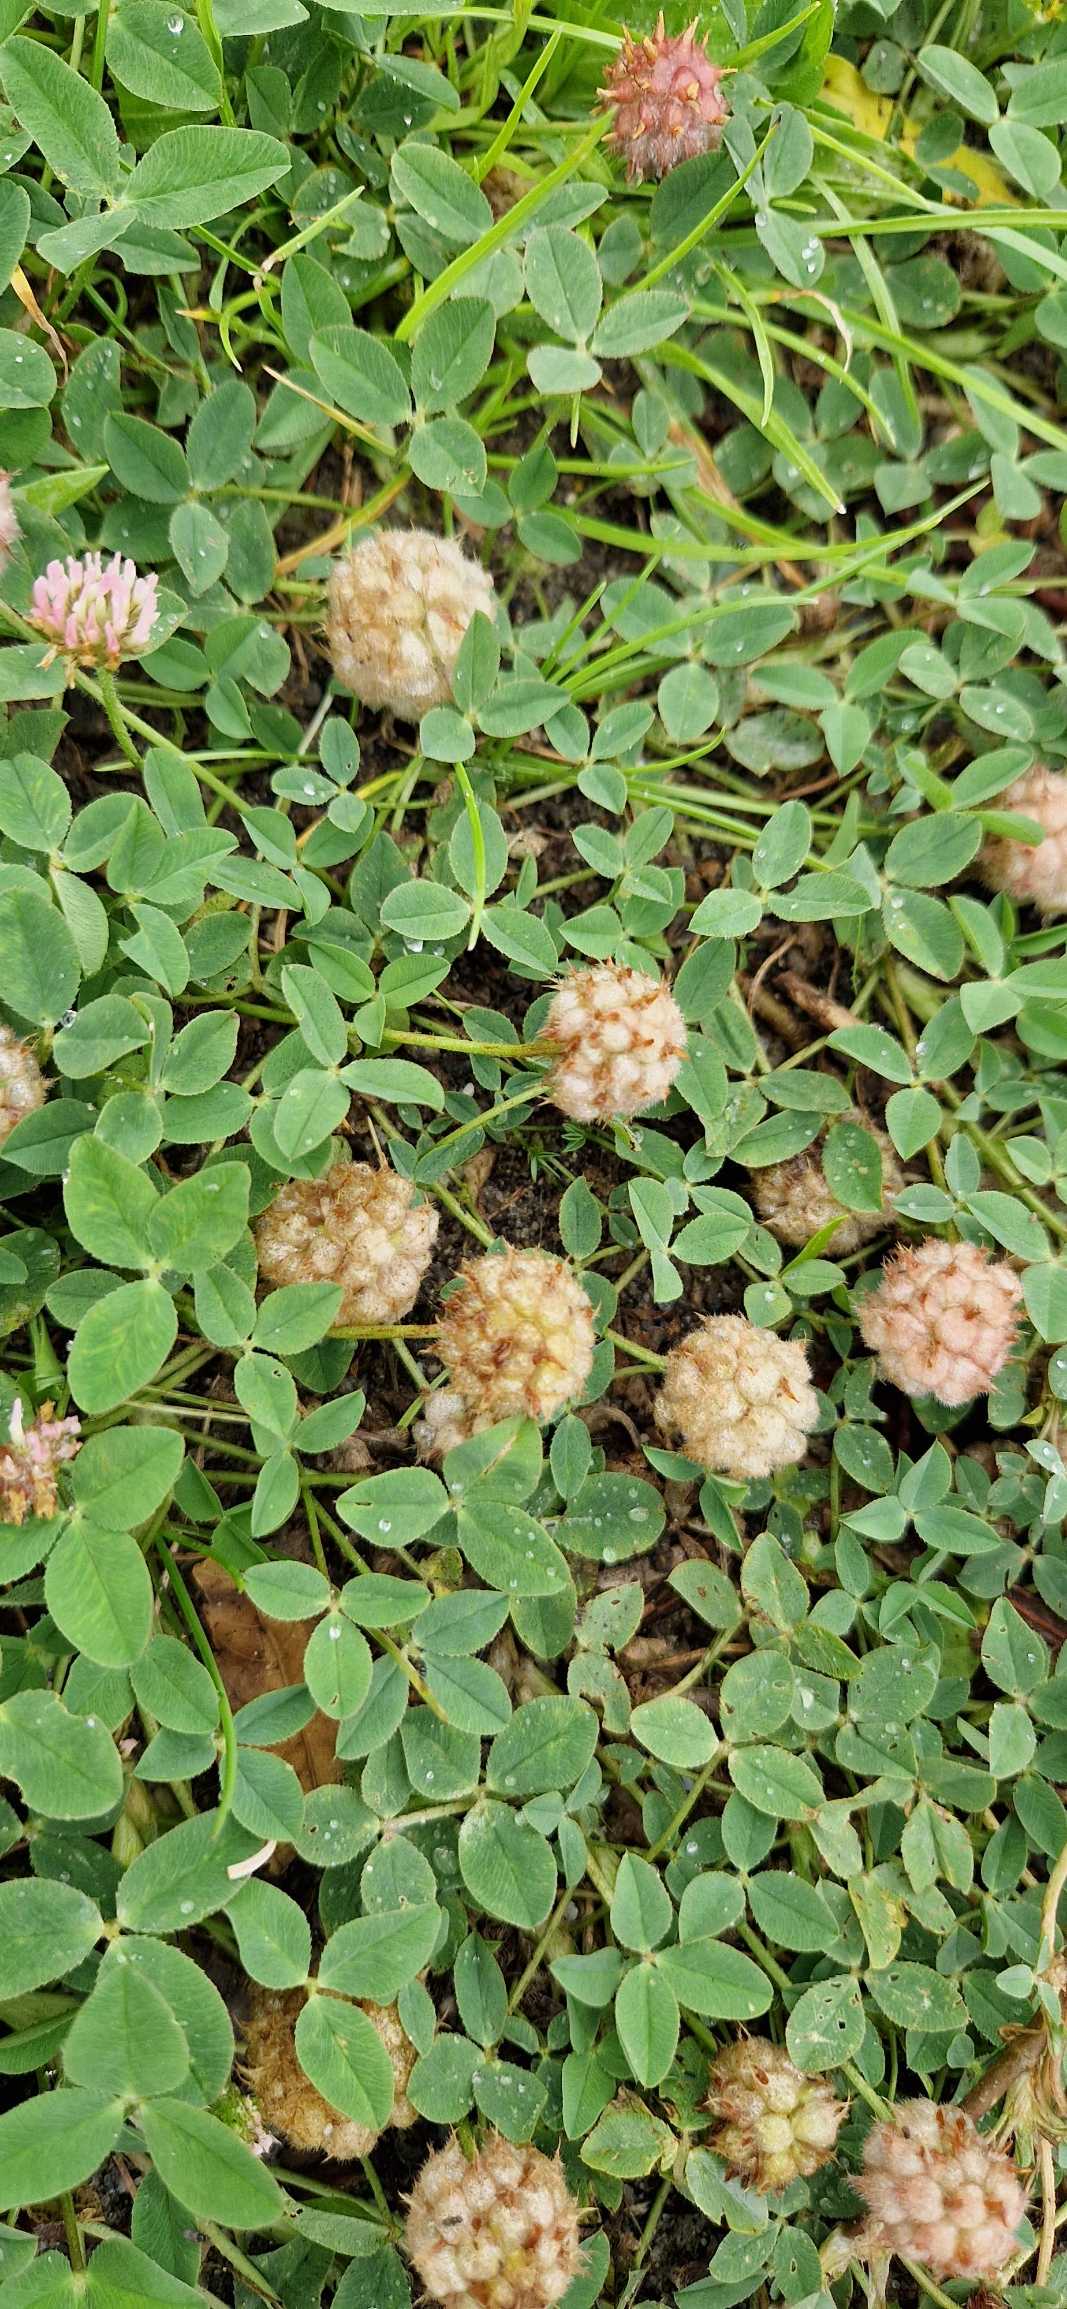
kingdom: Plantae
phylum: Tracheophyta
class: Magnoliopsida
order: Fabales
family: Fabaceae
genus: Trifolium
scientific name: Trifolium fragiferum
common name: Jordbær-kløver
